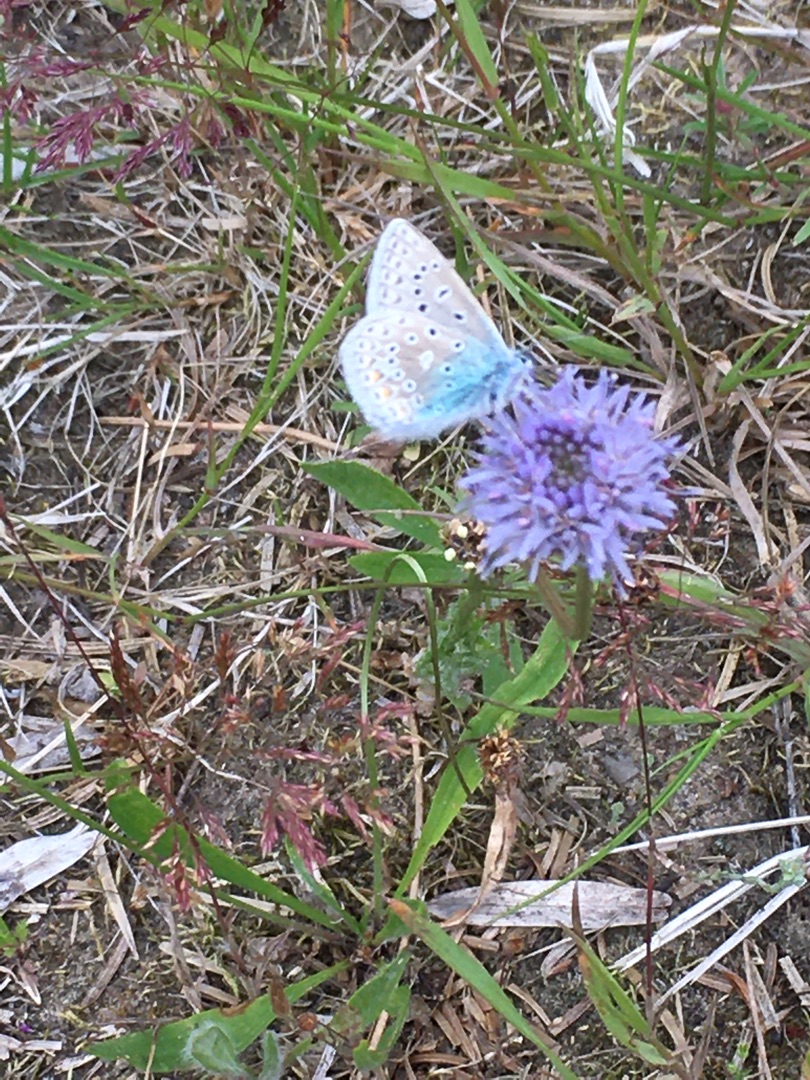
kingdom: Animalia
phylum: Arthropoda
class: Insecta
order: Lepidoptera
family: Lycaenidae
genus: Polyommatus
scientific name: Polyommatus icarus
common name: Almindelig blåfugl
